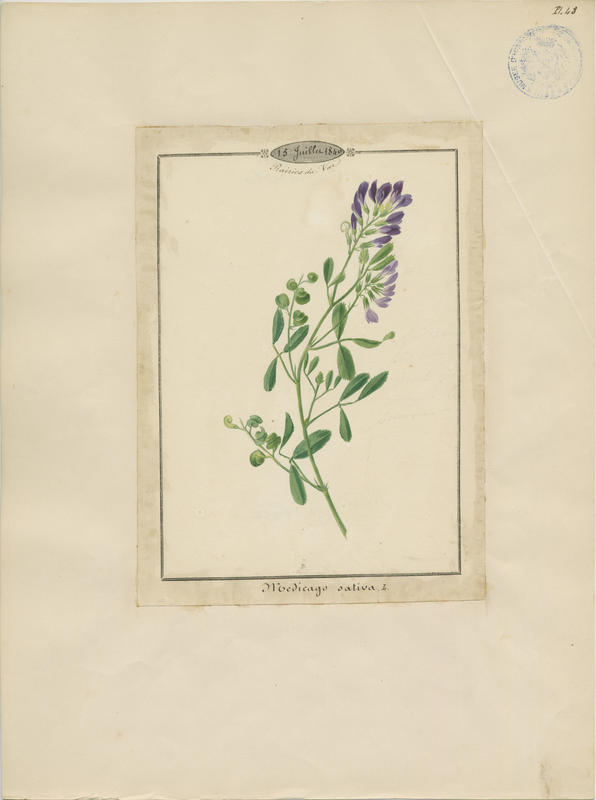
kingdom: Plantae
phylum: Tracheophyta
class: Magnoliopsida
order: Fabales
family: Fabaceae
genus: Medicago
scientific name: Medicago sativa
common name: Alfalfa
